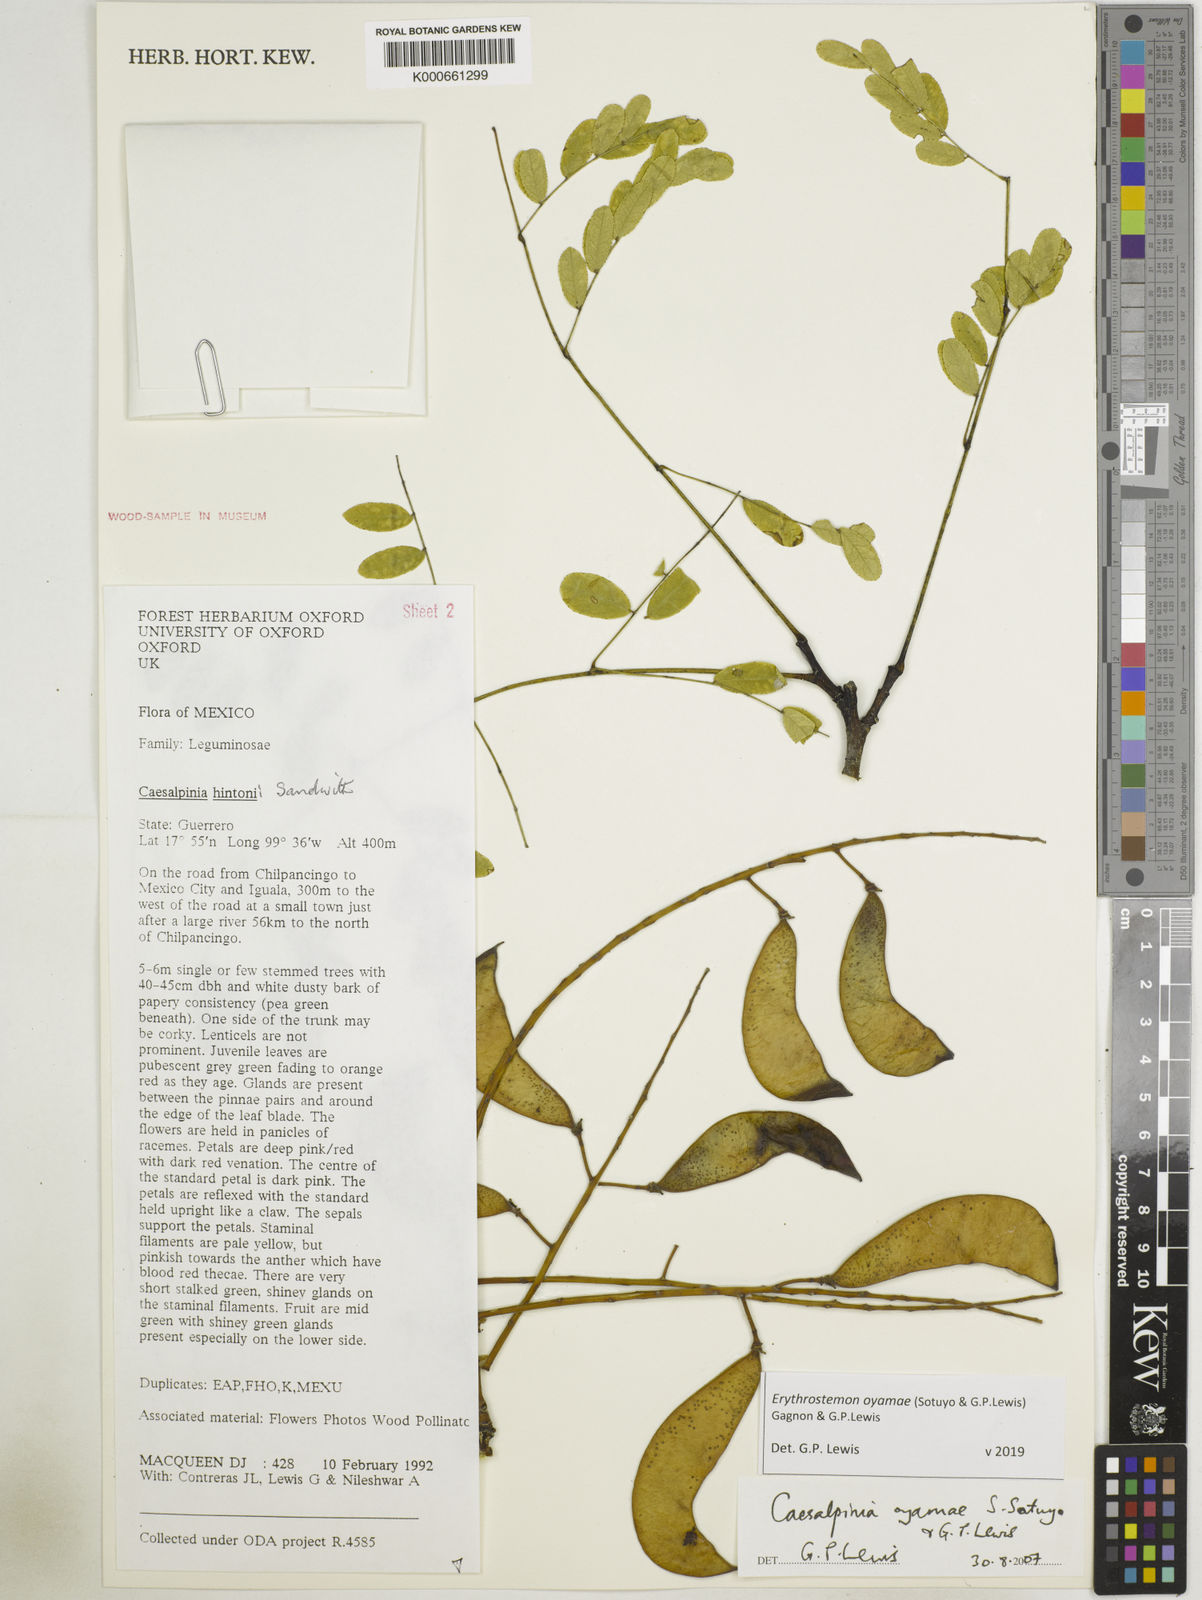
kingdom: Plantae
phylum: Tracheophyta
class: Magnoliopsida
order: Fabales
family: Fabaceae
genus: Erythrostemon
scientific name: Erythrostemon oyamae
